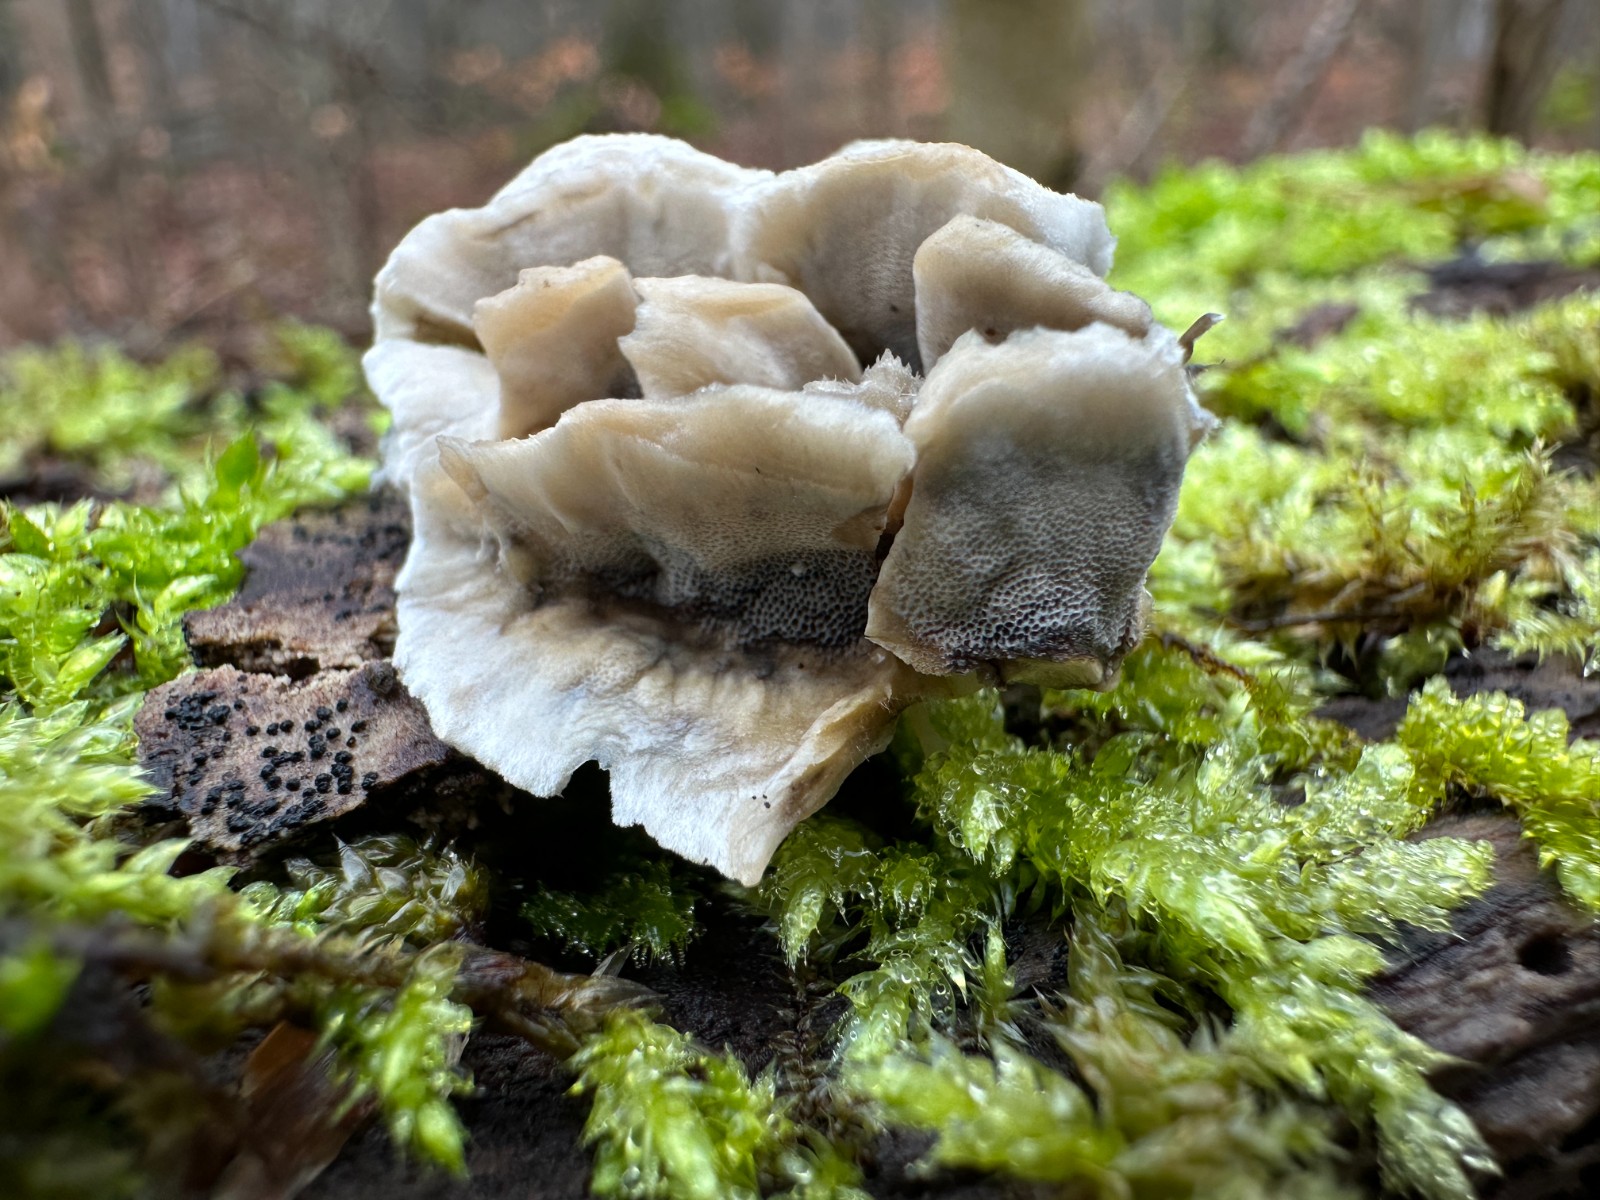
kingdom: Fungi
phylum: Basidiomycota
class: Agaricomycetes
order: Polyporales
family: Phanerochaetaceae
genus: Bjerkandera
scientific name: Bjerkandera adusta
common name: sveden sodporesvamp
